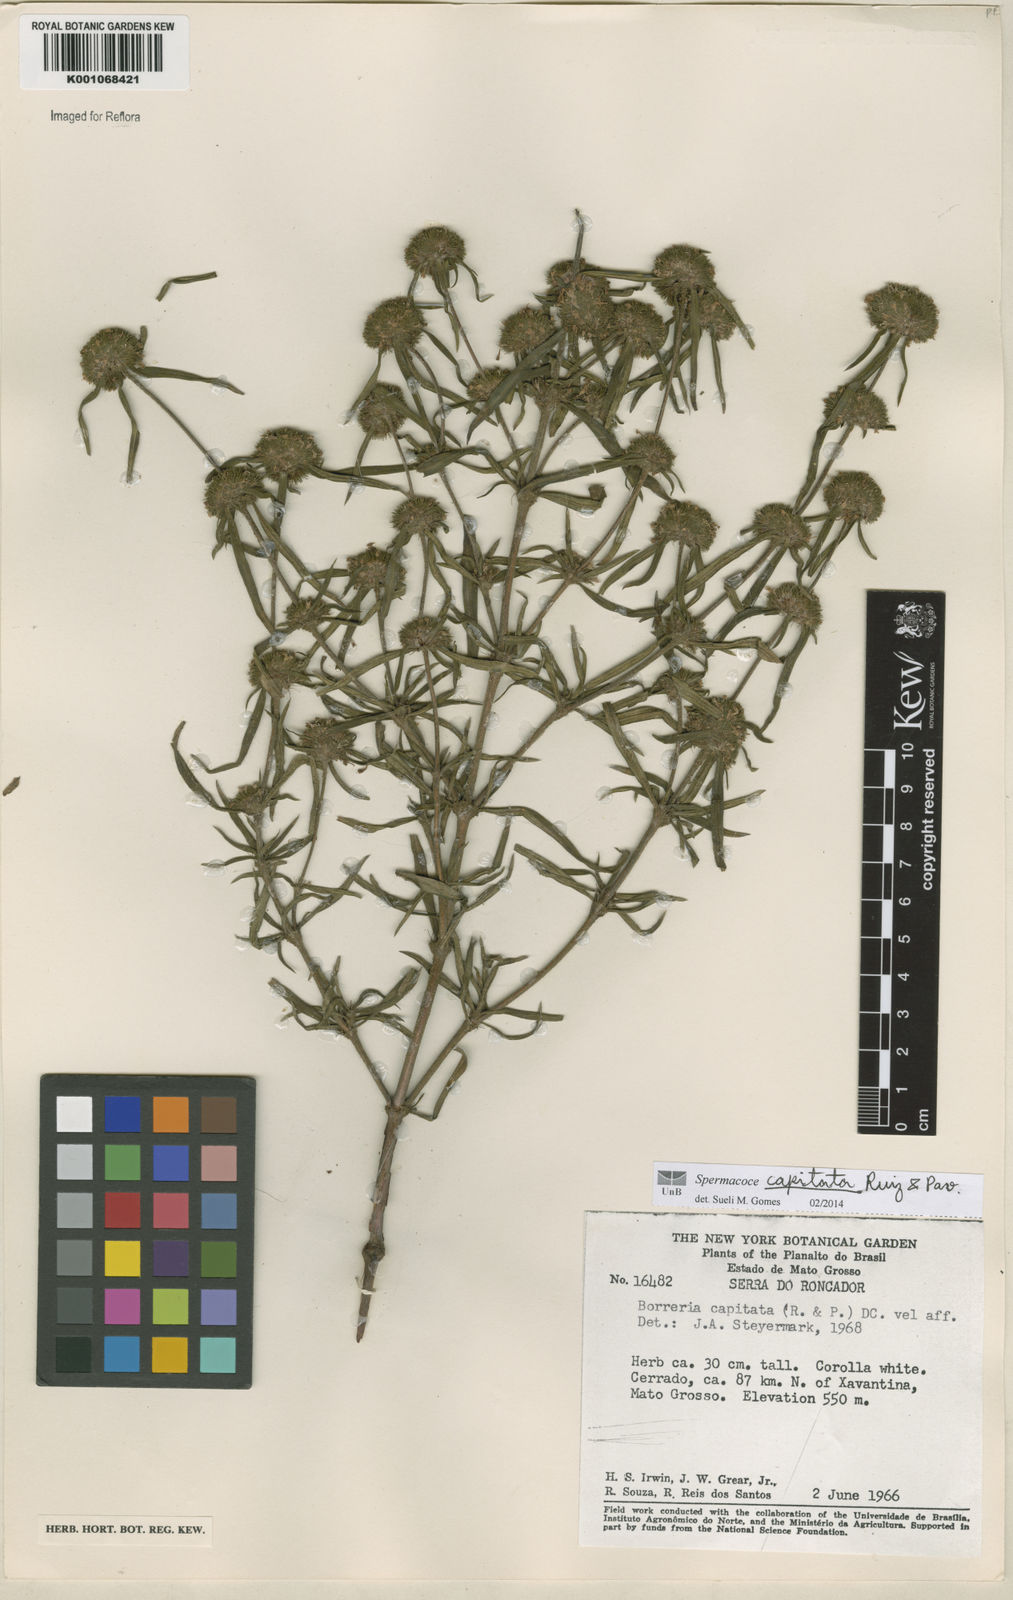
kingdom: Plantae
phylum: Tracheophyta
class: Magnoliopsida
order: Gentianales
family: Rubiaceae
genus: Spermacoce
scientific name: Spermacoce capitata
